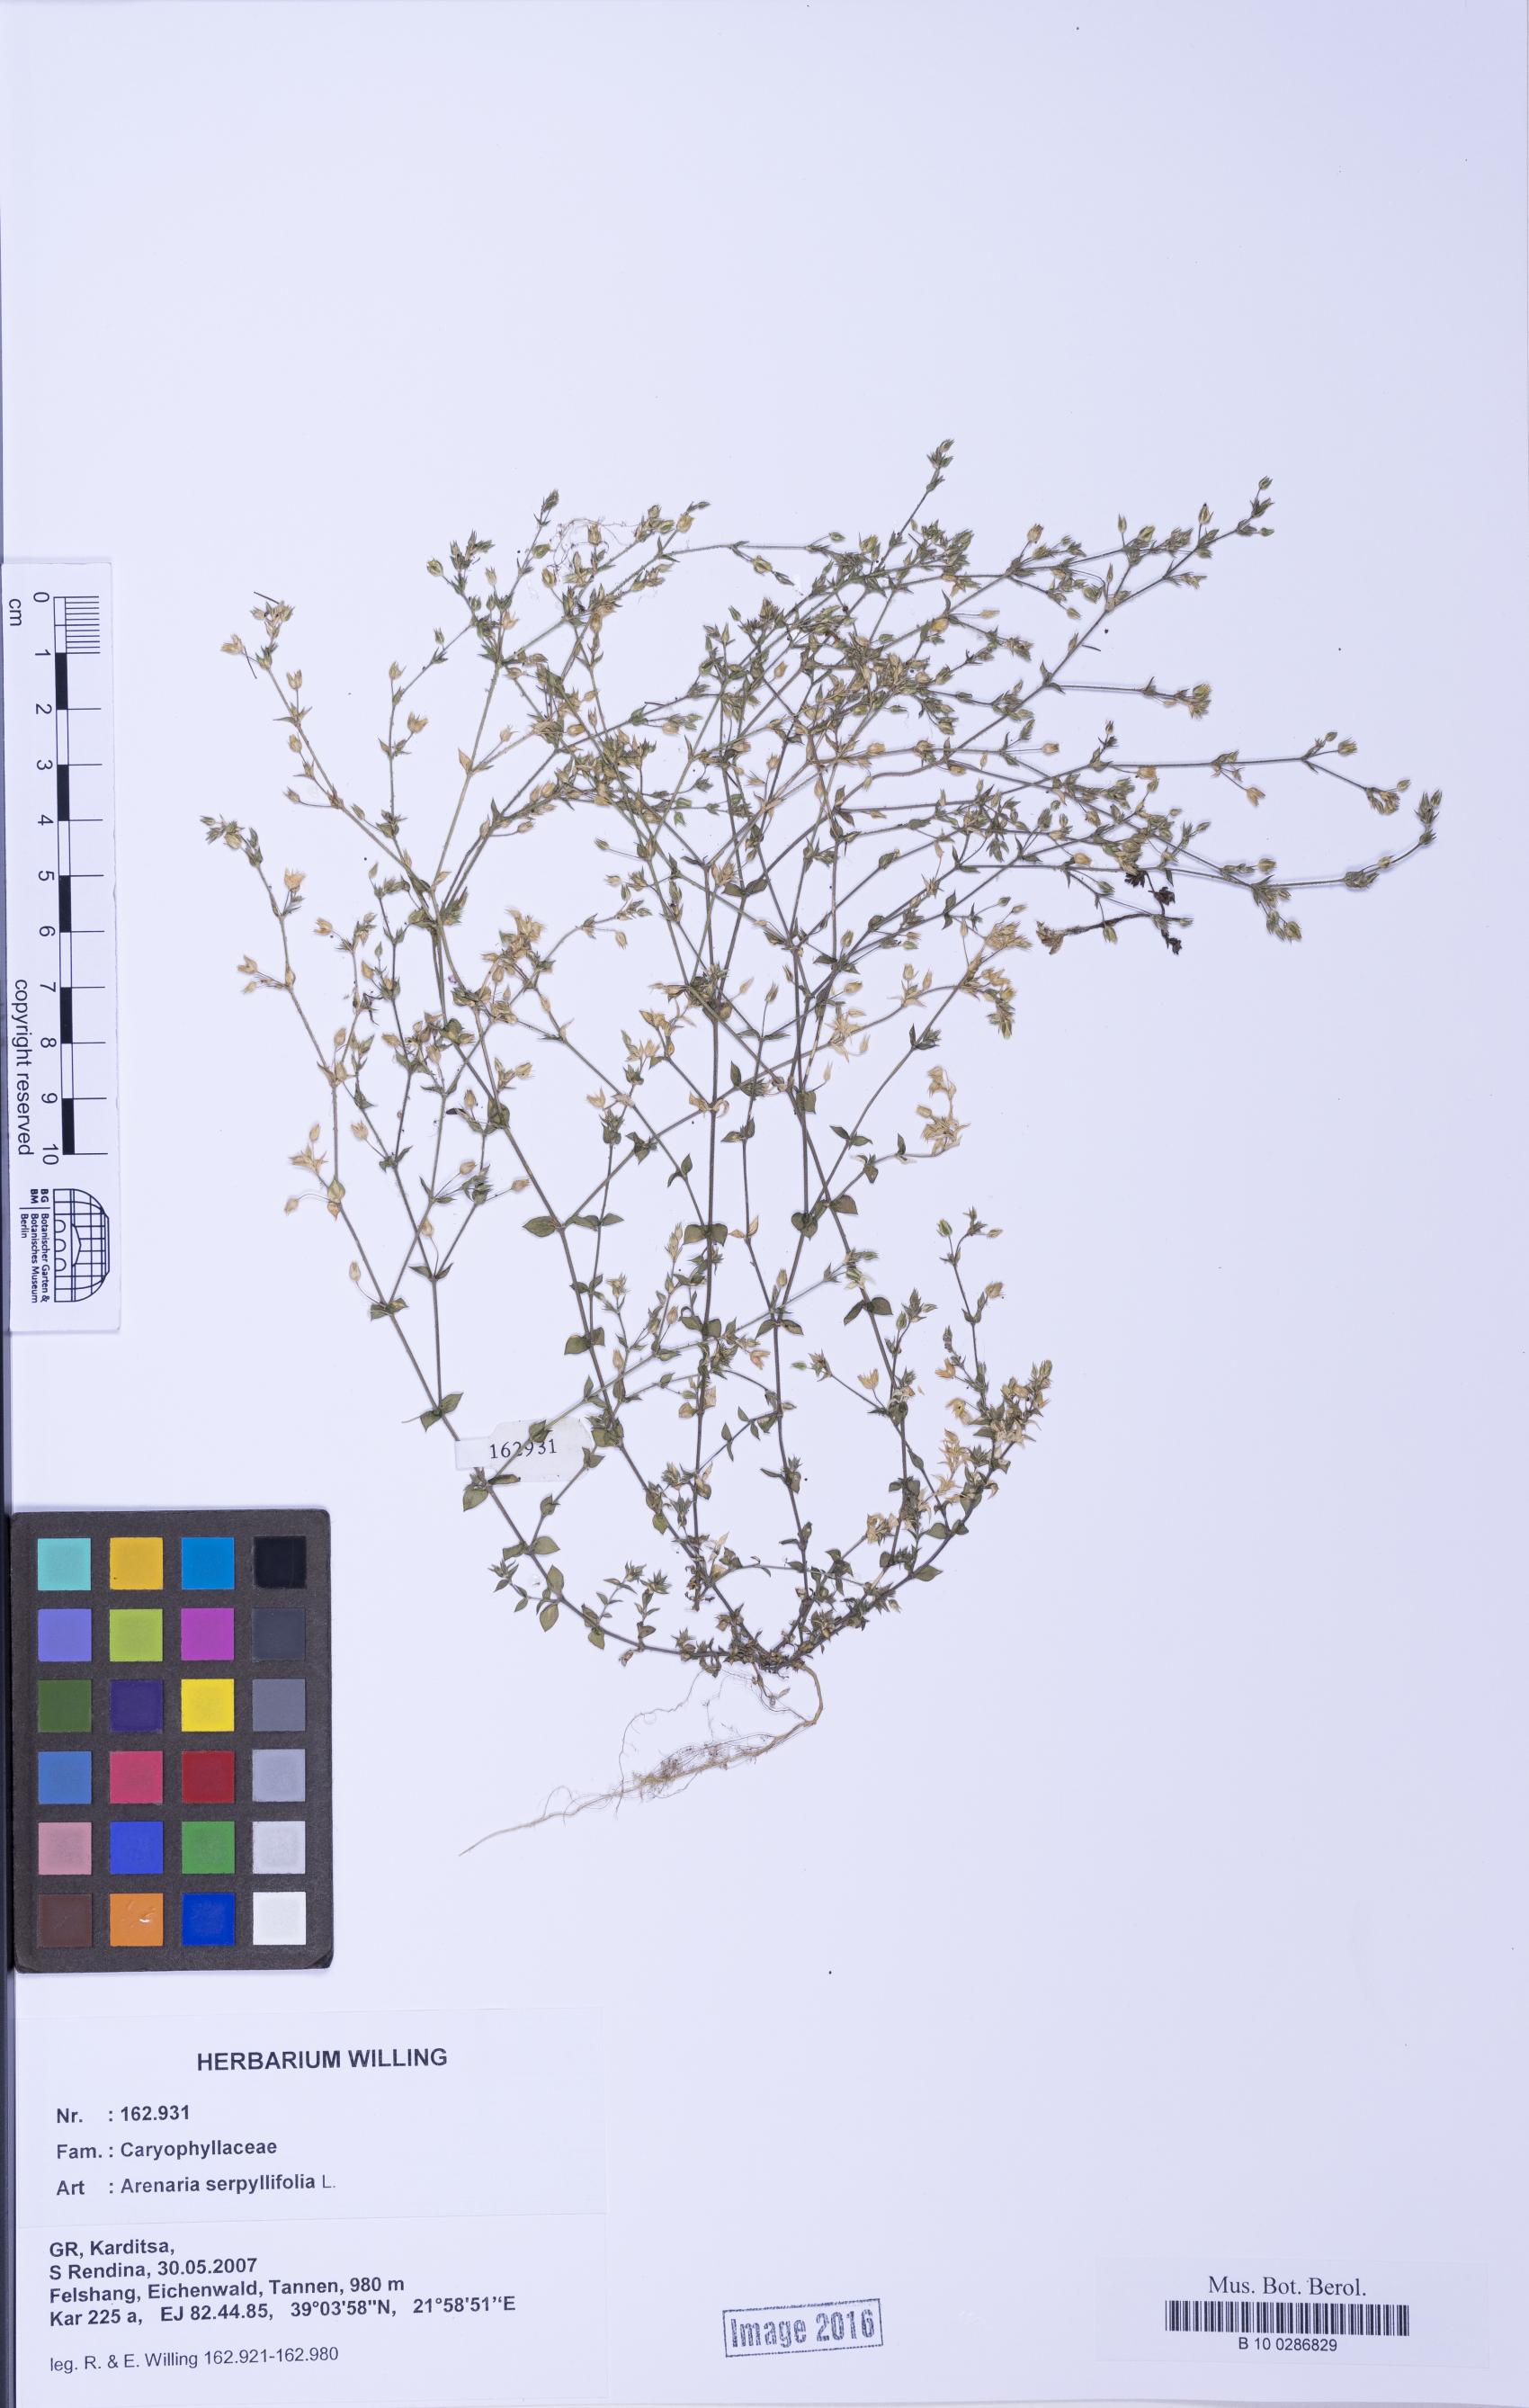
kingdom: Plantae
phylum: Tracheophyta
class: Magnoliopsida
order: Caryophyllales
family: Caryophyllaceae
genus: Arenaria
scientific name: Arenaria serpyllifolia
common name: Thyme-leaved sandwort
